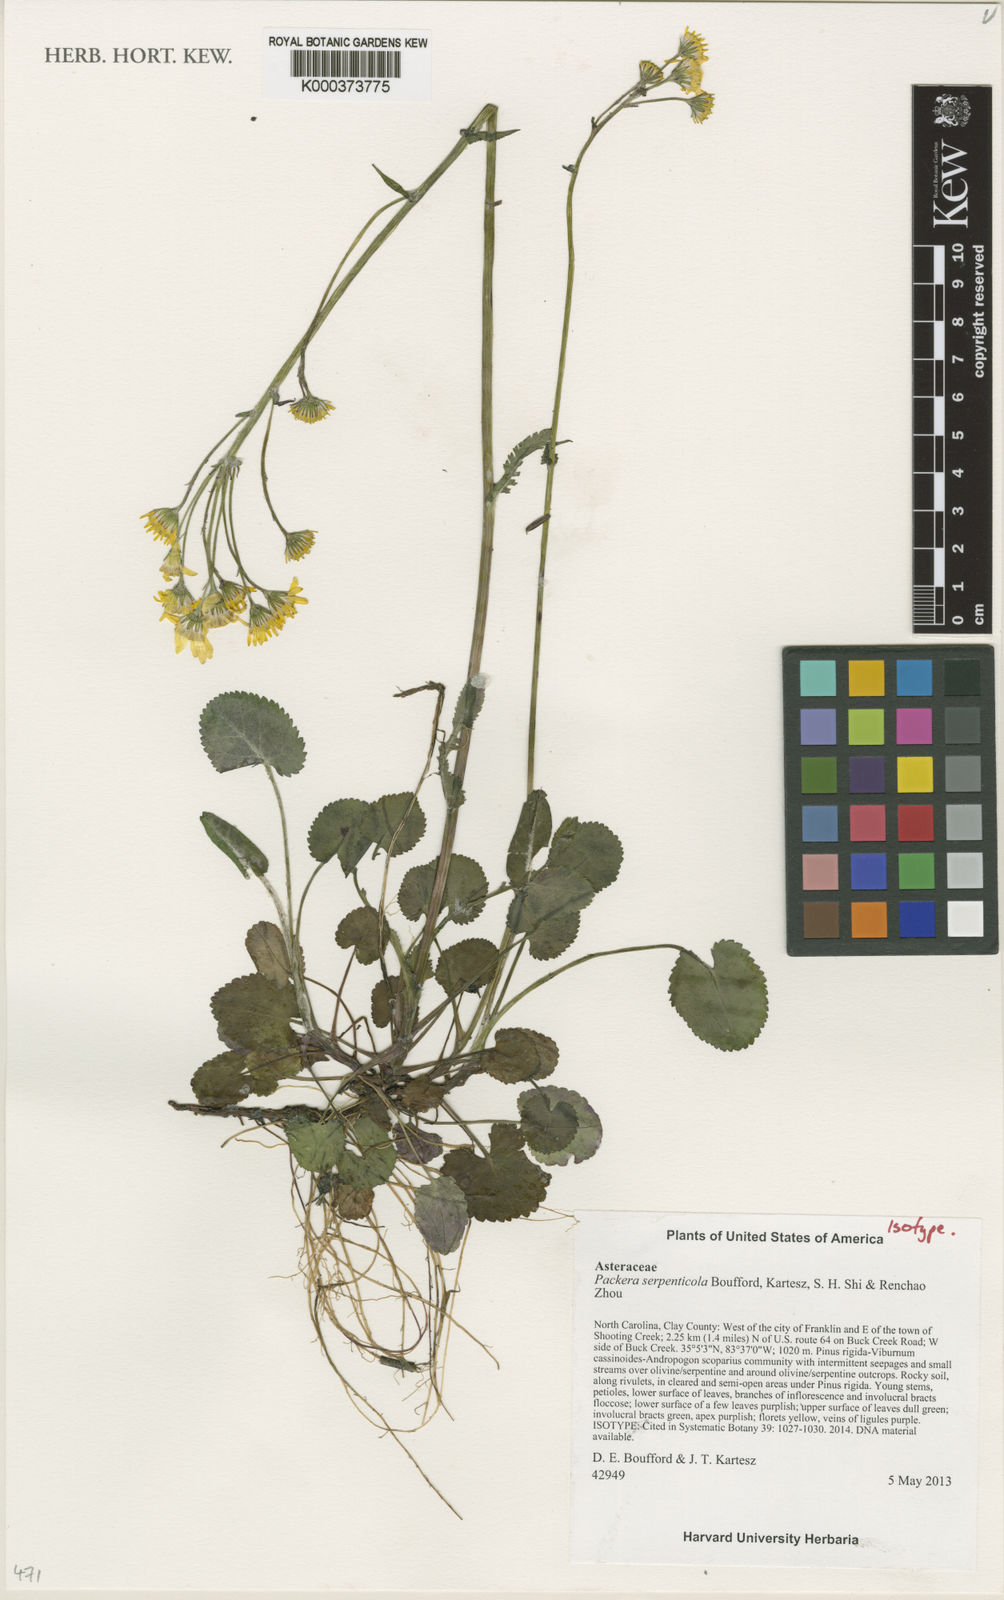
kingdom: Plantae
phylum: Tracheophyta
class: Magnoliopsida
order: Asterales
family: Asteraceae
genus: Packera
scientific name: Packera
